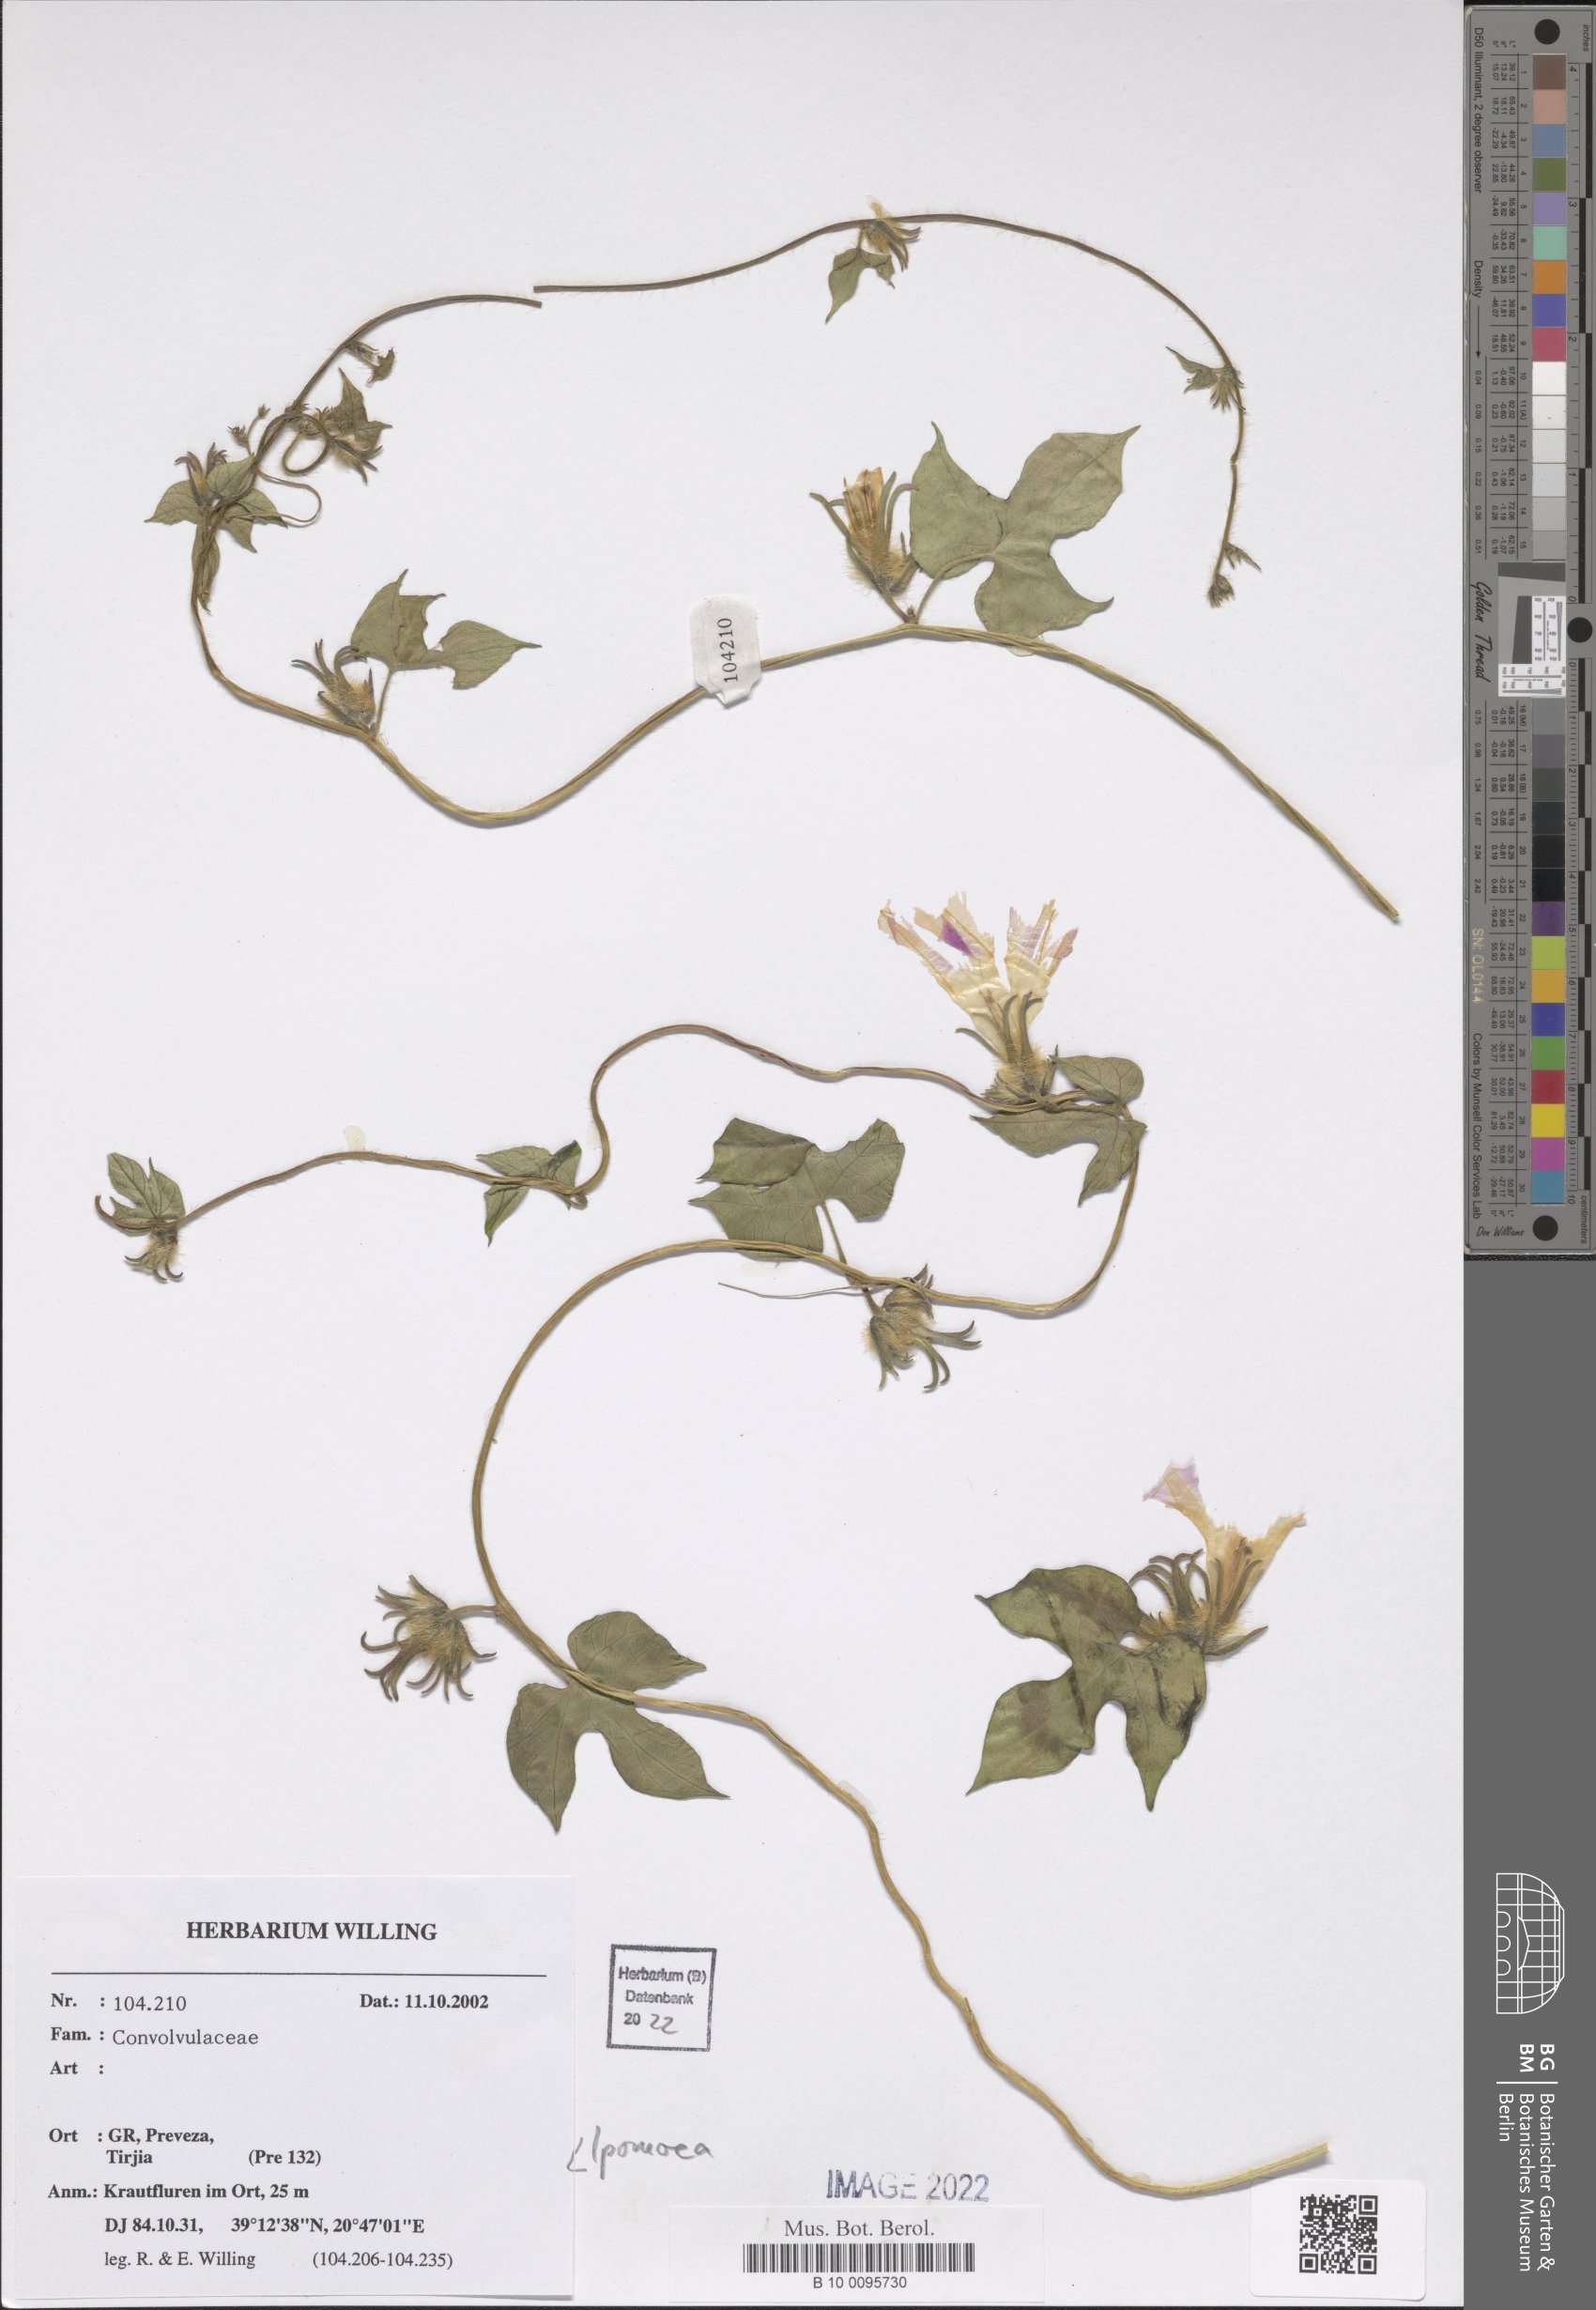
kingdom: Plantae
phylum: Tracheophyta
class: Magnoliopsida
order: Solanales
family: Convolvulaceae
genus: Ipomoea
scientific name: Ipomoea
